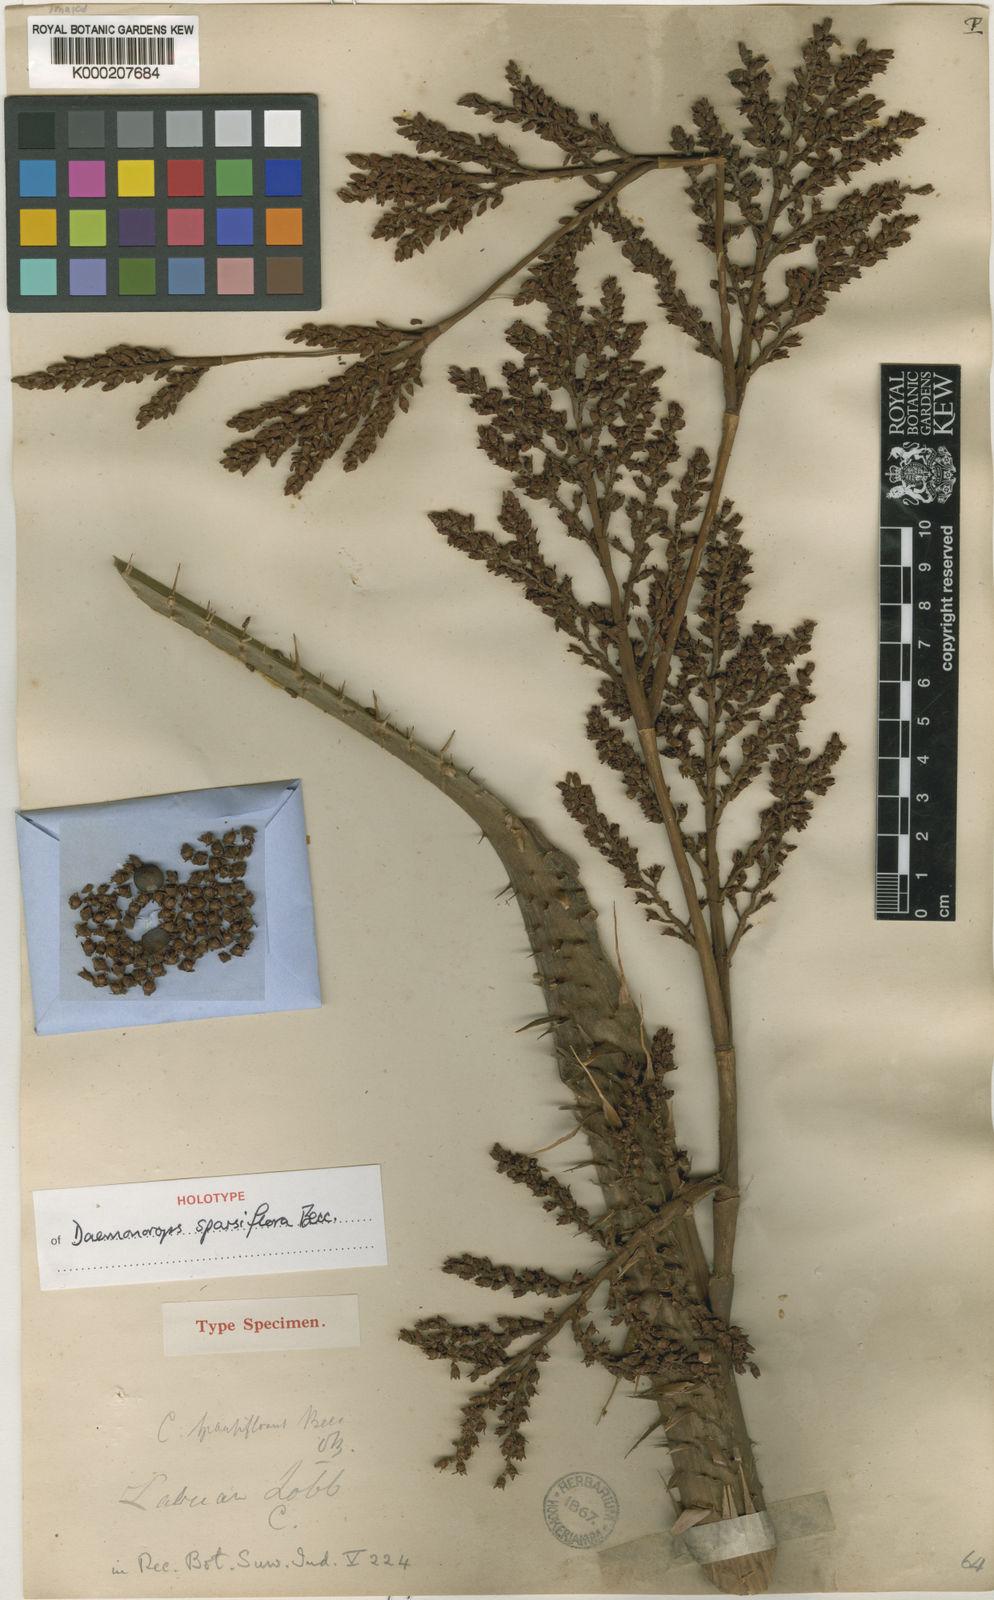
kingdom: Plantae
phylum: Tracheophyta
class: Liliopsida
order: Arecales
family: Arecaceae
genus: Calamus
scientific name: Calamus sparsiflorus
